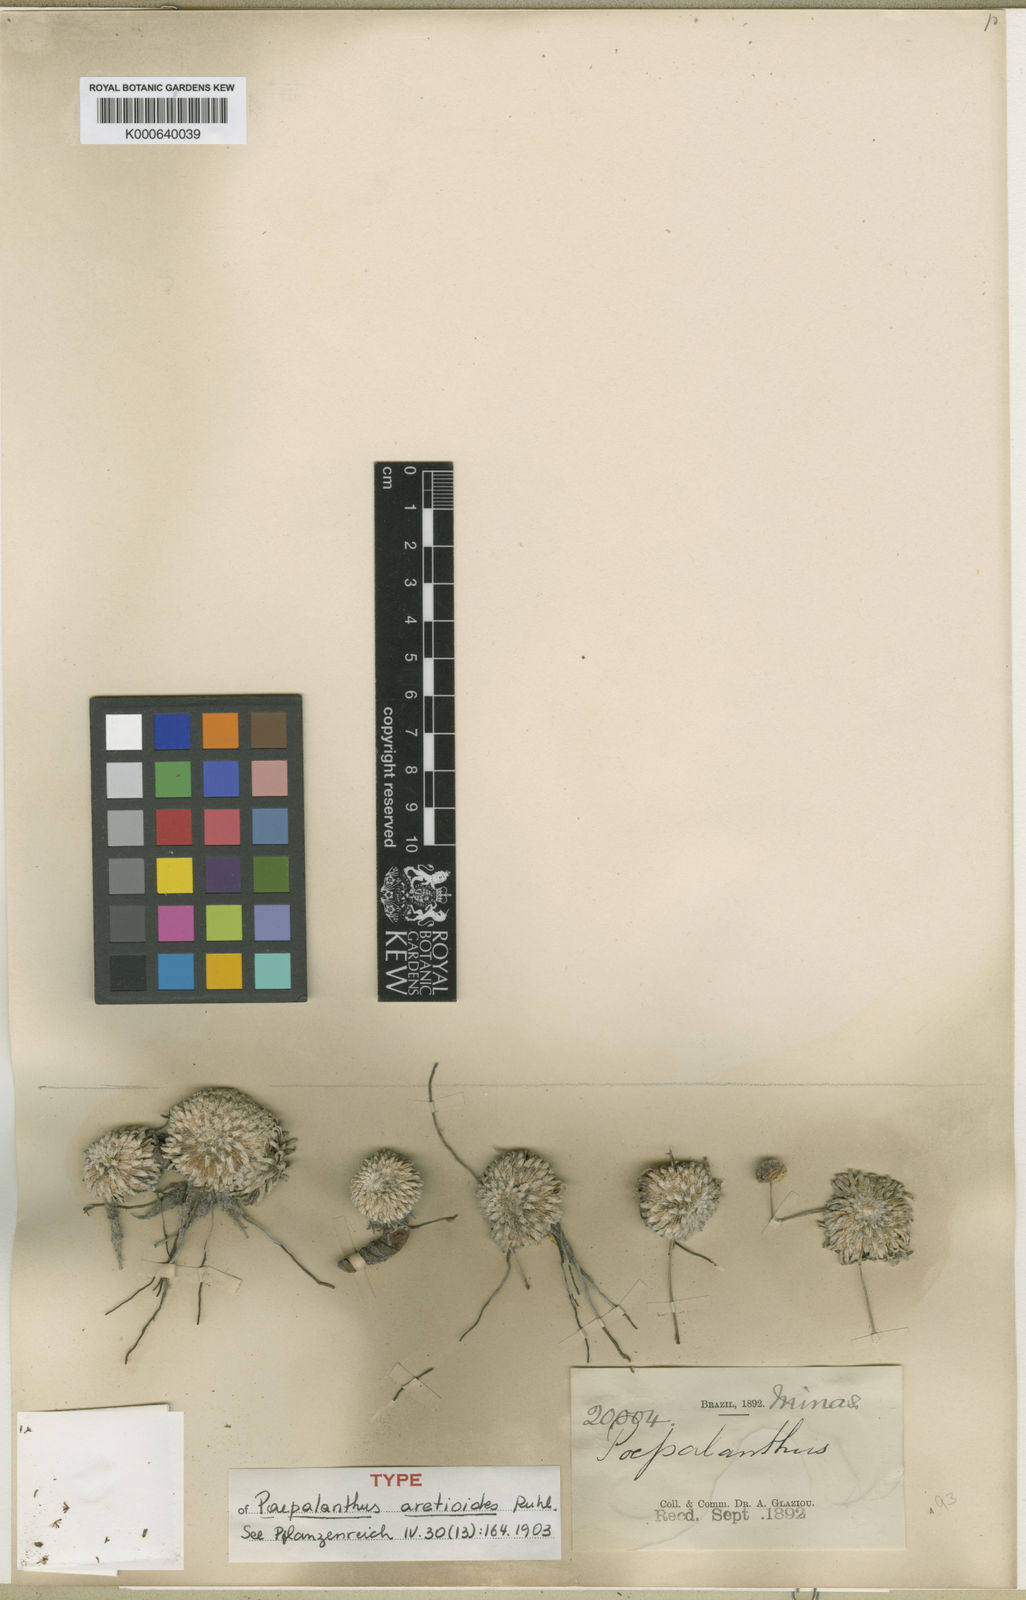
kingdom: Plantae
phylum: Tracheophyta
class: Liliopsida
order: Poales
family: Eriocaulaceae
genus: Paepalanthus
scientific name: Paepalanthus aretioides
